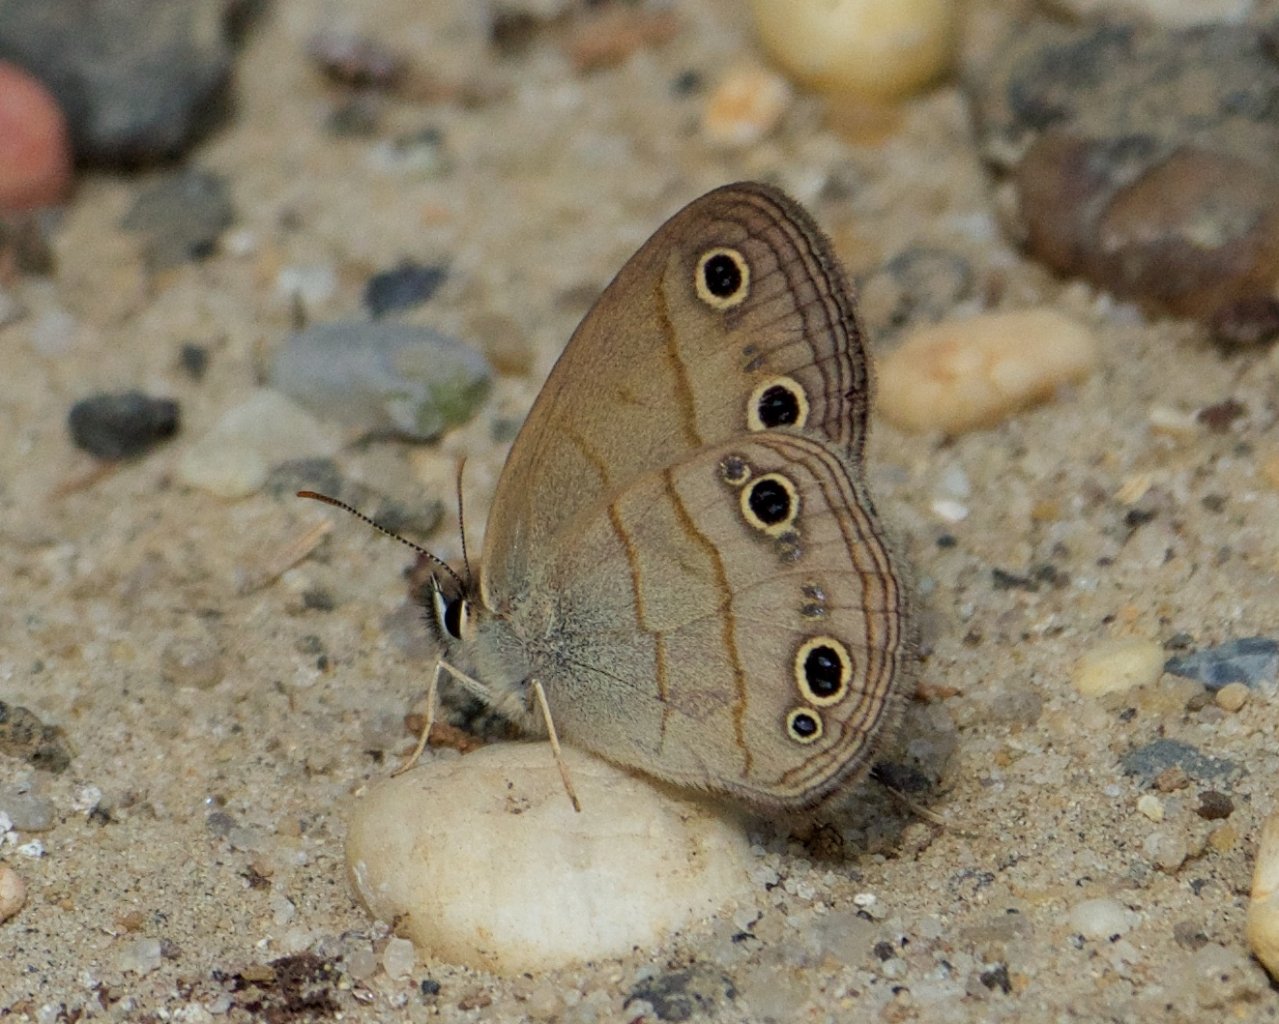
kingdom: Animalia
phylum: Arthropoda
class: Insecta
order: Lepidoptera
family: Nymphalidae
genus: Euptychia
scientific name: Euptychia cymela
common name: Little Wood Satyr
